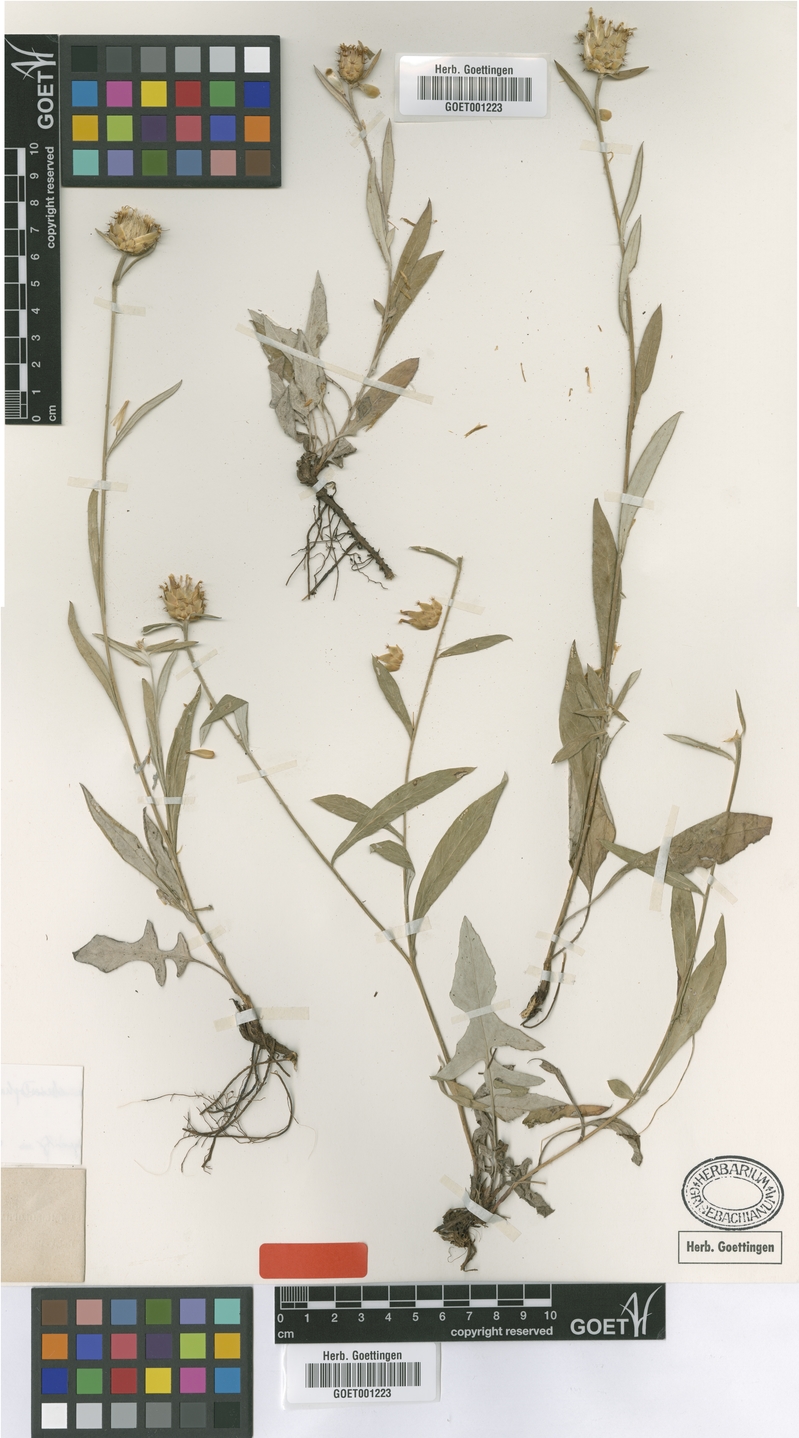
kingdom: Plantae
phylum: Tracheophyta
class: Magnoliopsida
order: Asterales
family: Asteraceae
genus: Centaurea
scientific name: Centaurea cheirolopha
